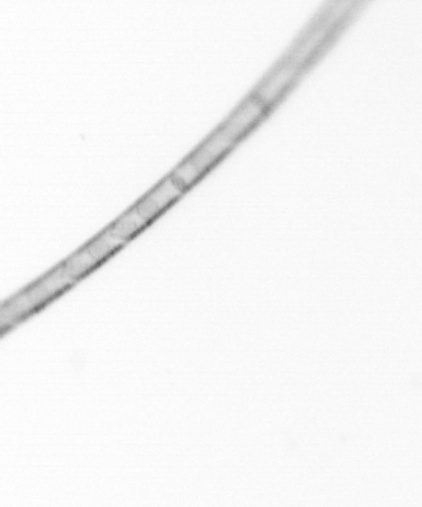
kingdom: Chromista
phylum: Ochrophyta
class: Bacillariophyceae
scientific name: Bacillariophyceae
